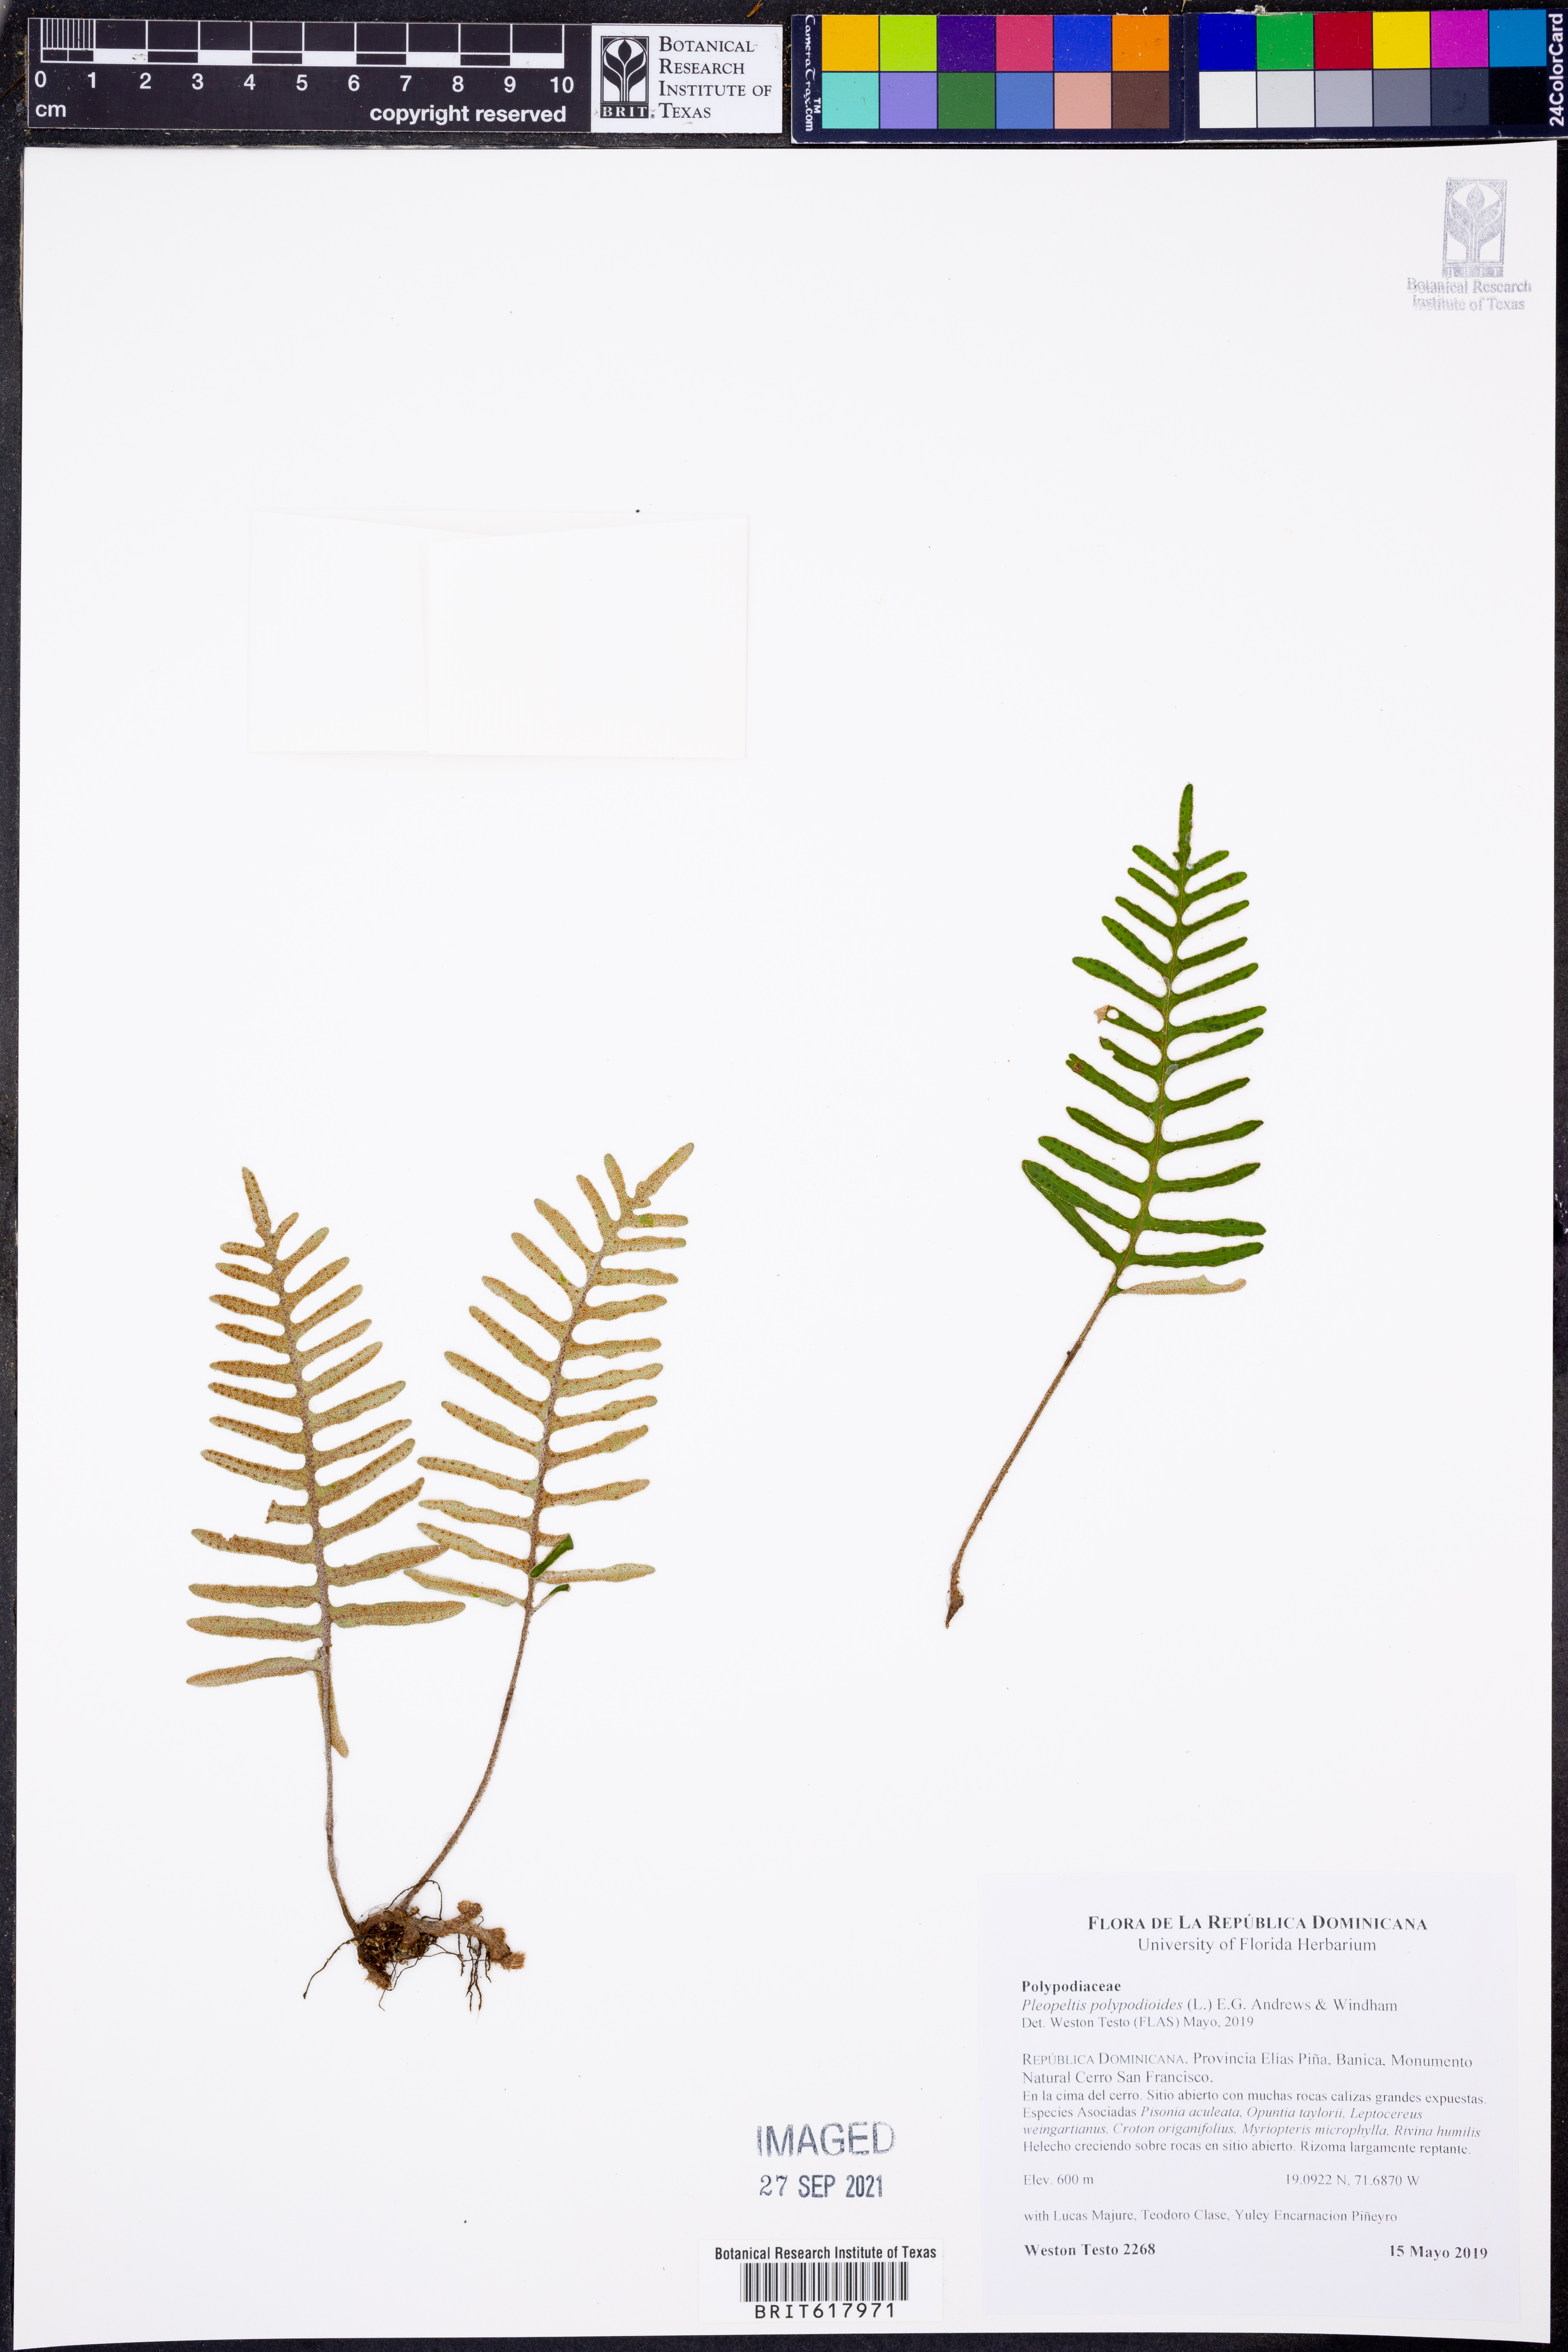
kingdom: Plantae
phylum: Tracheophyta
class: Polypodiopsida
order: Polypodiales
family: Polypodiaceae
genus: Pleopeltis
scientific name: Pleopeltis polypodioides
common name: Resurrection fern
